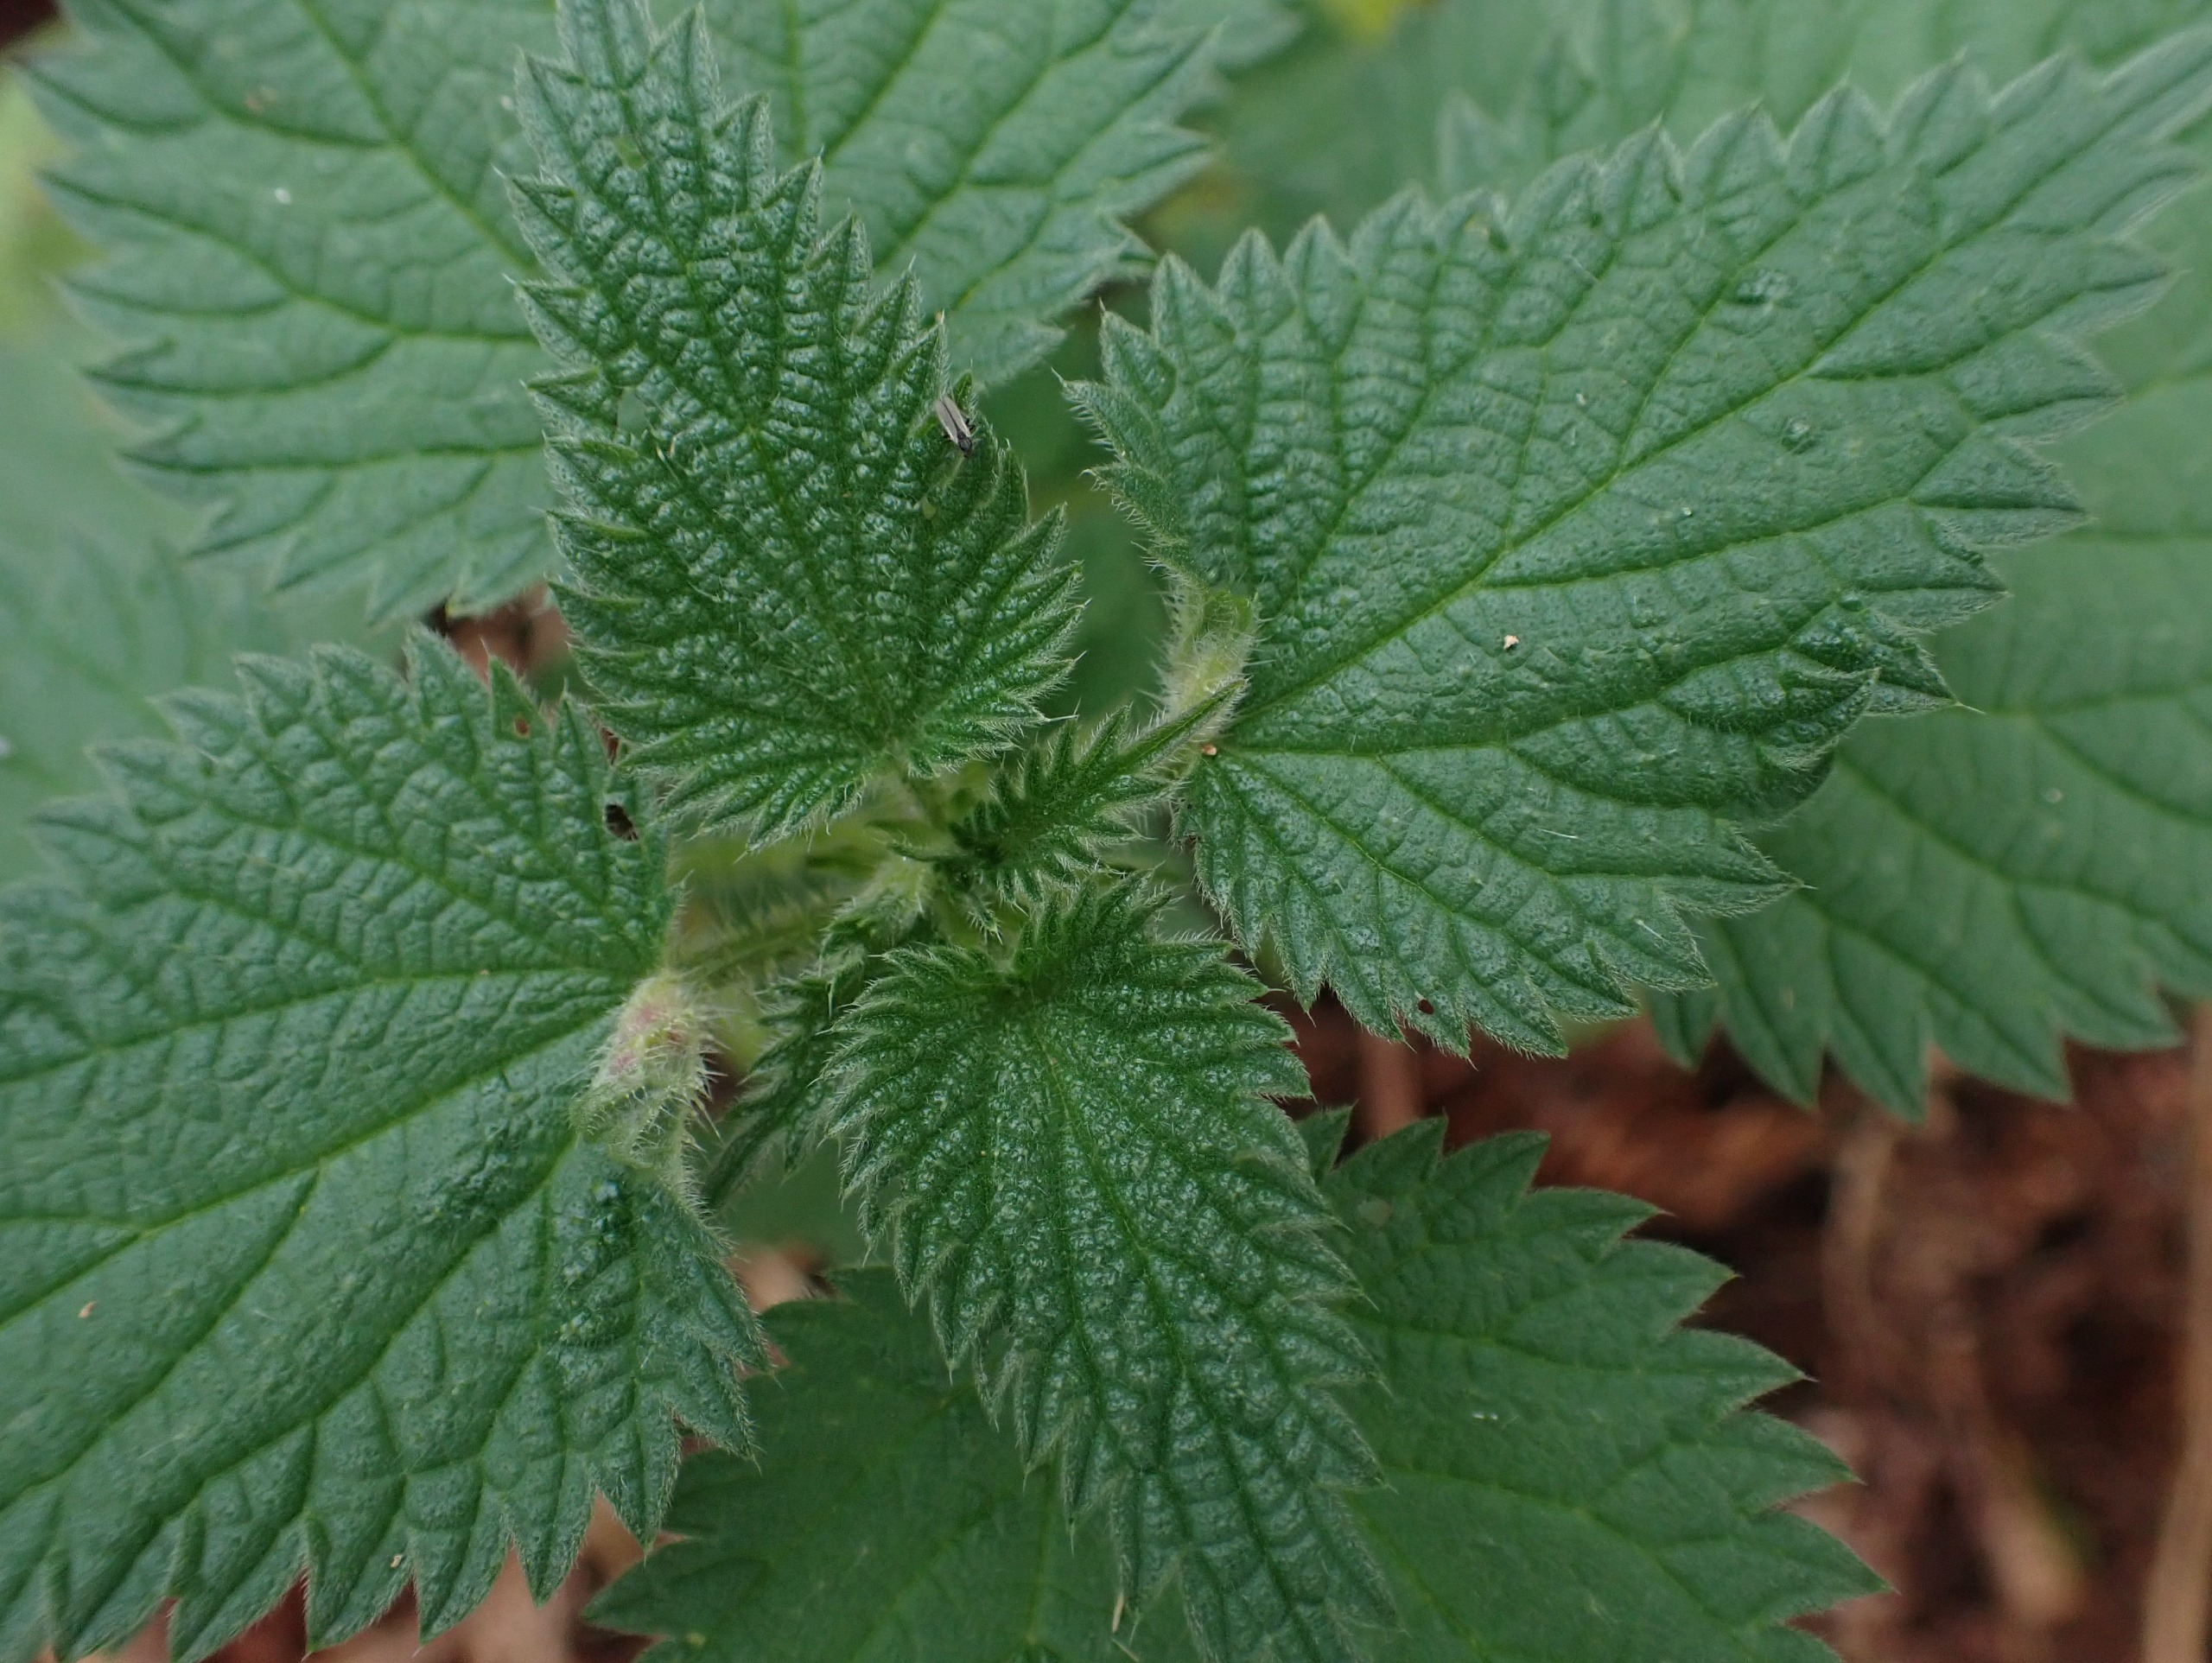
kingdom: Animalia
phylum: Arthropoda
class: Insecta
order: Diptera
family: Cecidomyiidae
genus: Dasineura
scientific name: Dasineura dioicae
